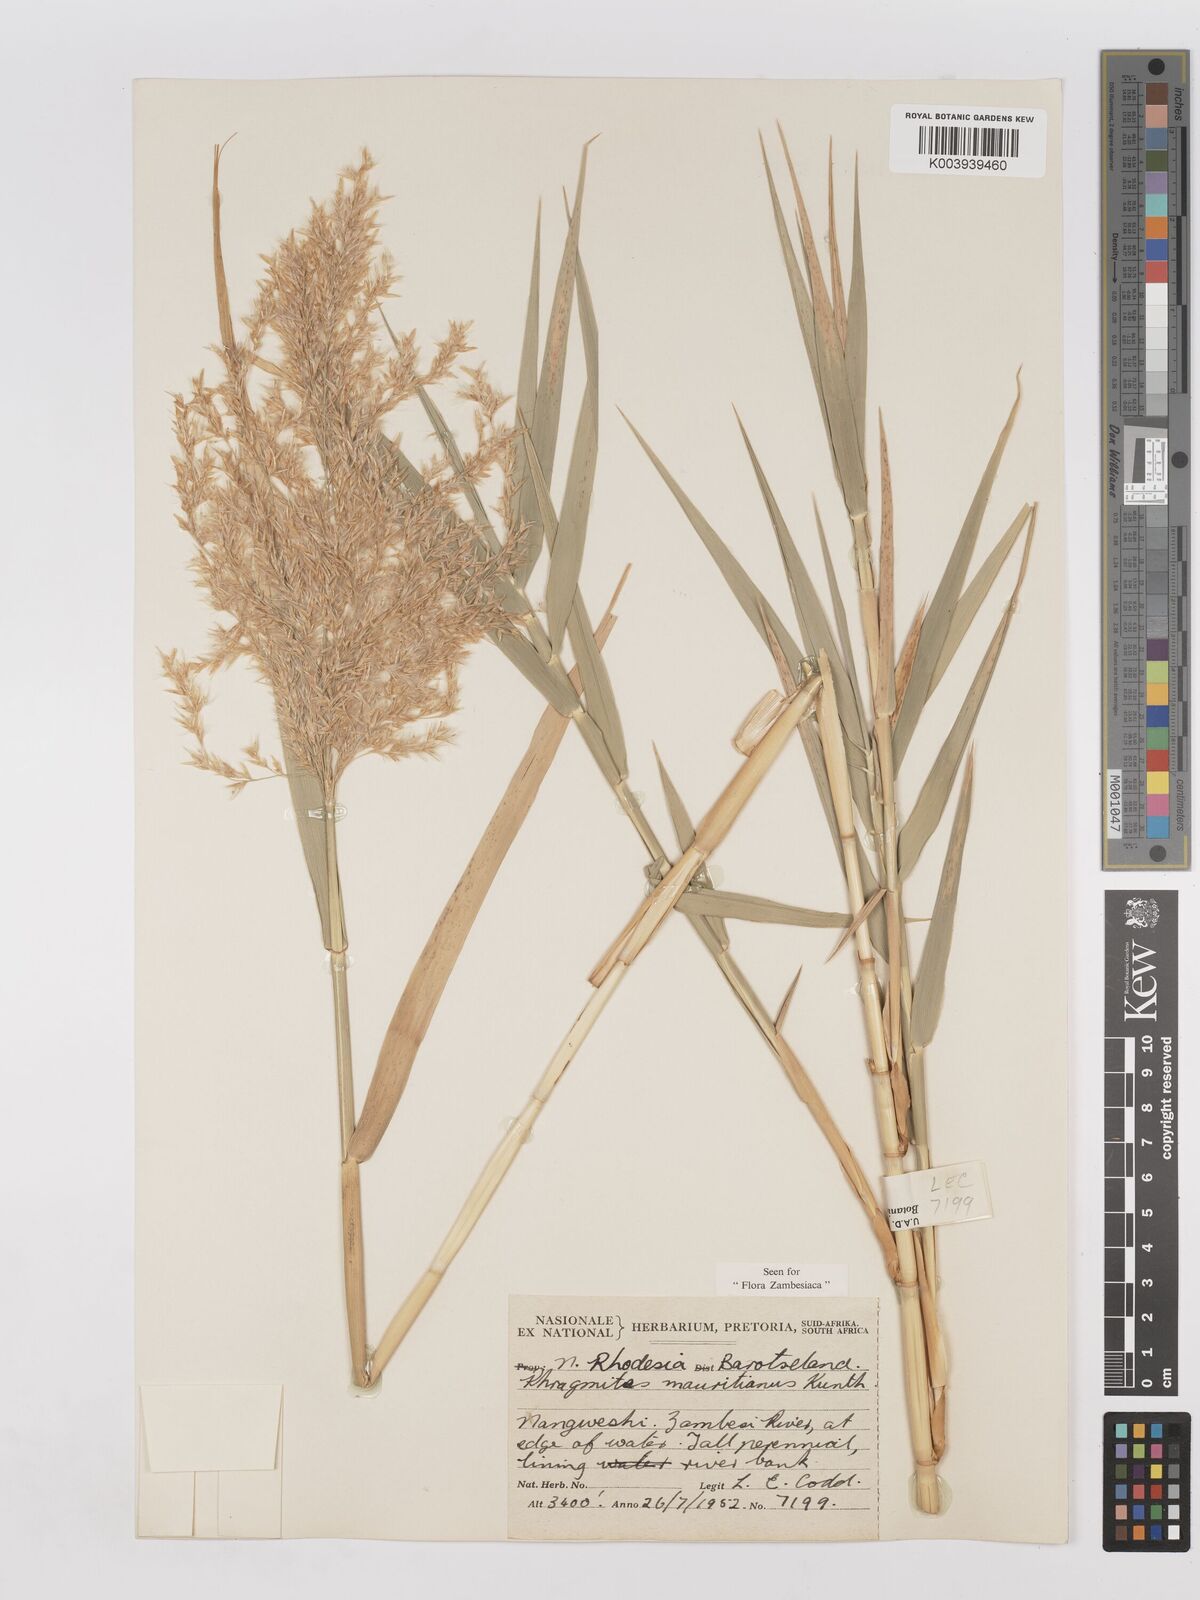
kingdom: Plantae
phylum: Tracheophyta
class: Liliopsida
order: Poales
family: Poaceae
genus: Phragmites
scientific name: Phragmites mauritianus
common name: Reed grass
